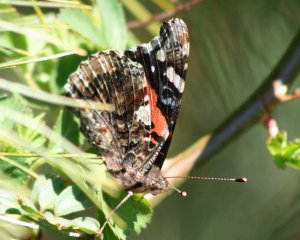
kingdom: Animalia
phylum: Arthropoda
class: Insecta
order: Lepidoptera
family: Nymphalidae
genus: Vanessa
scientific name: Vanessa atalanta
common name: Red Admiral
